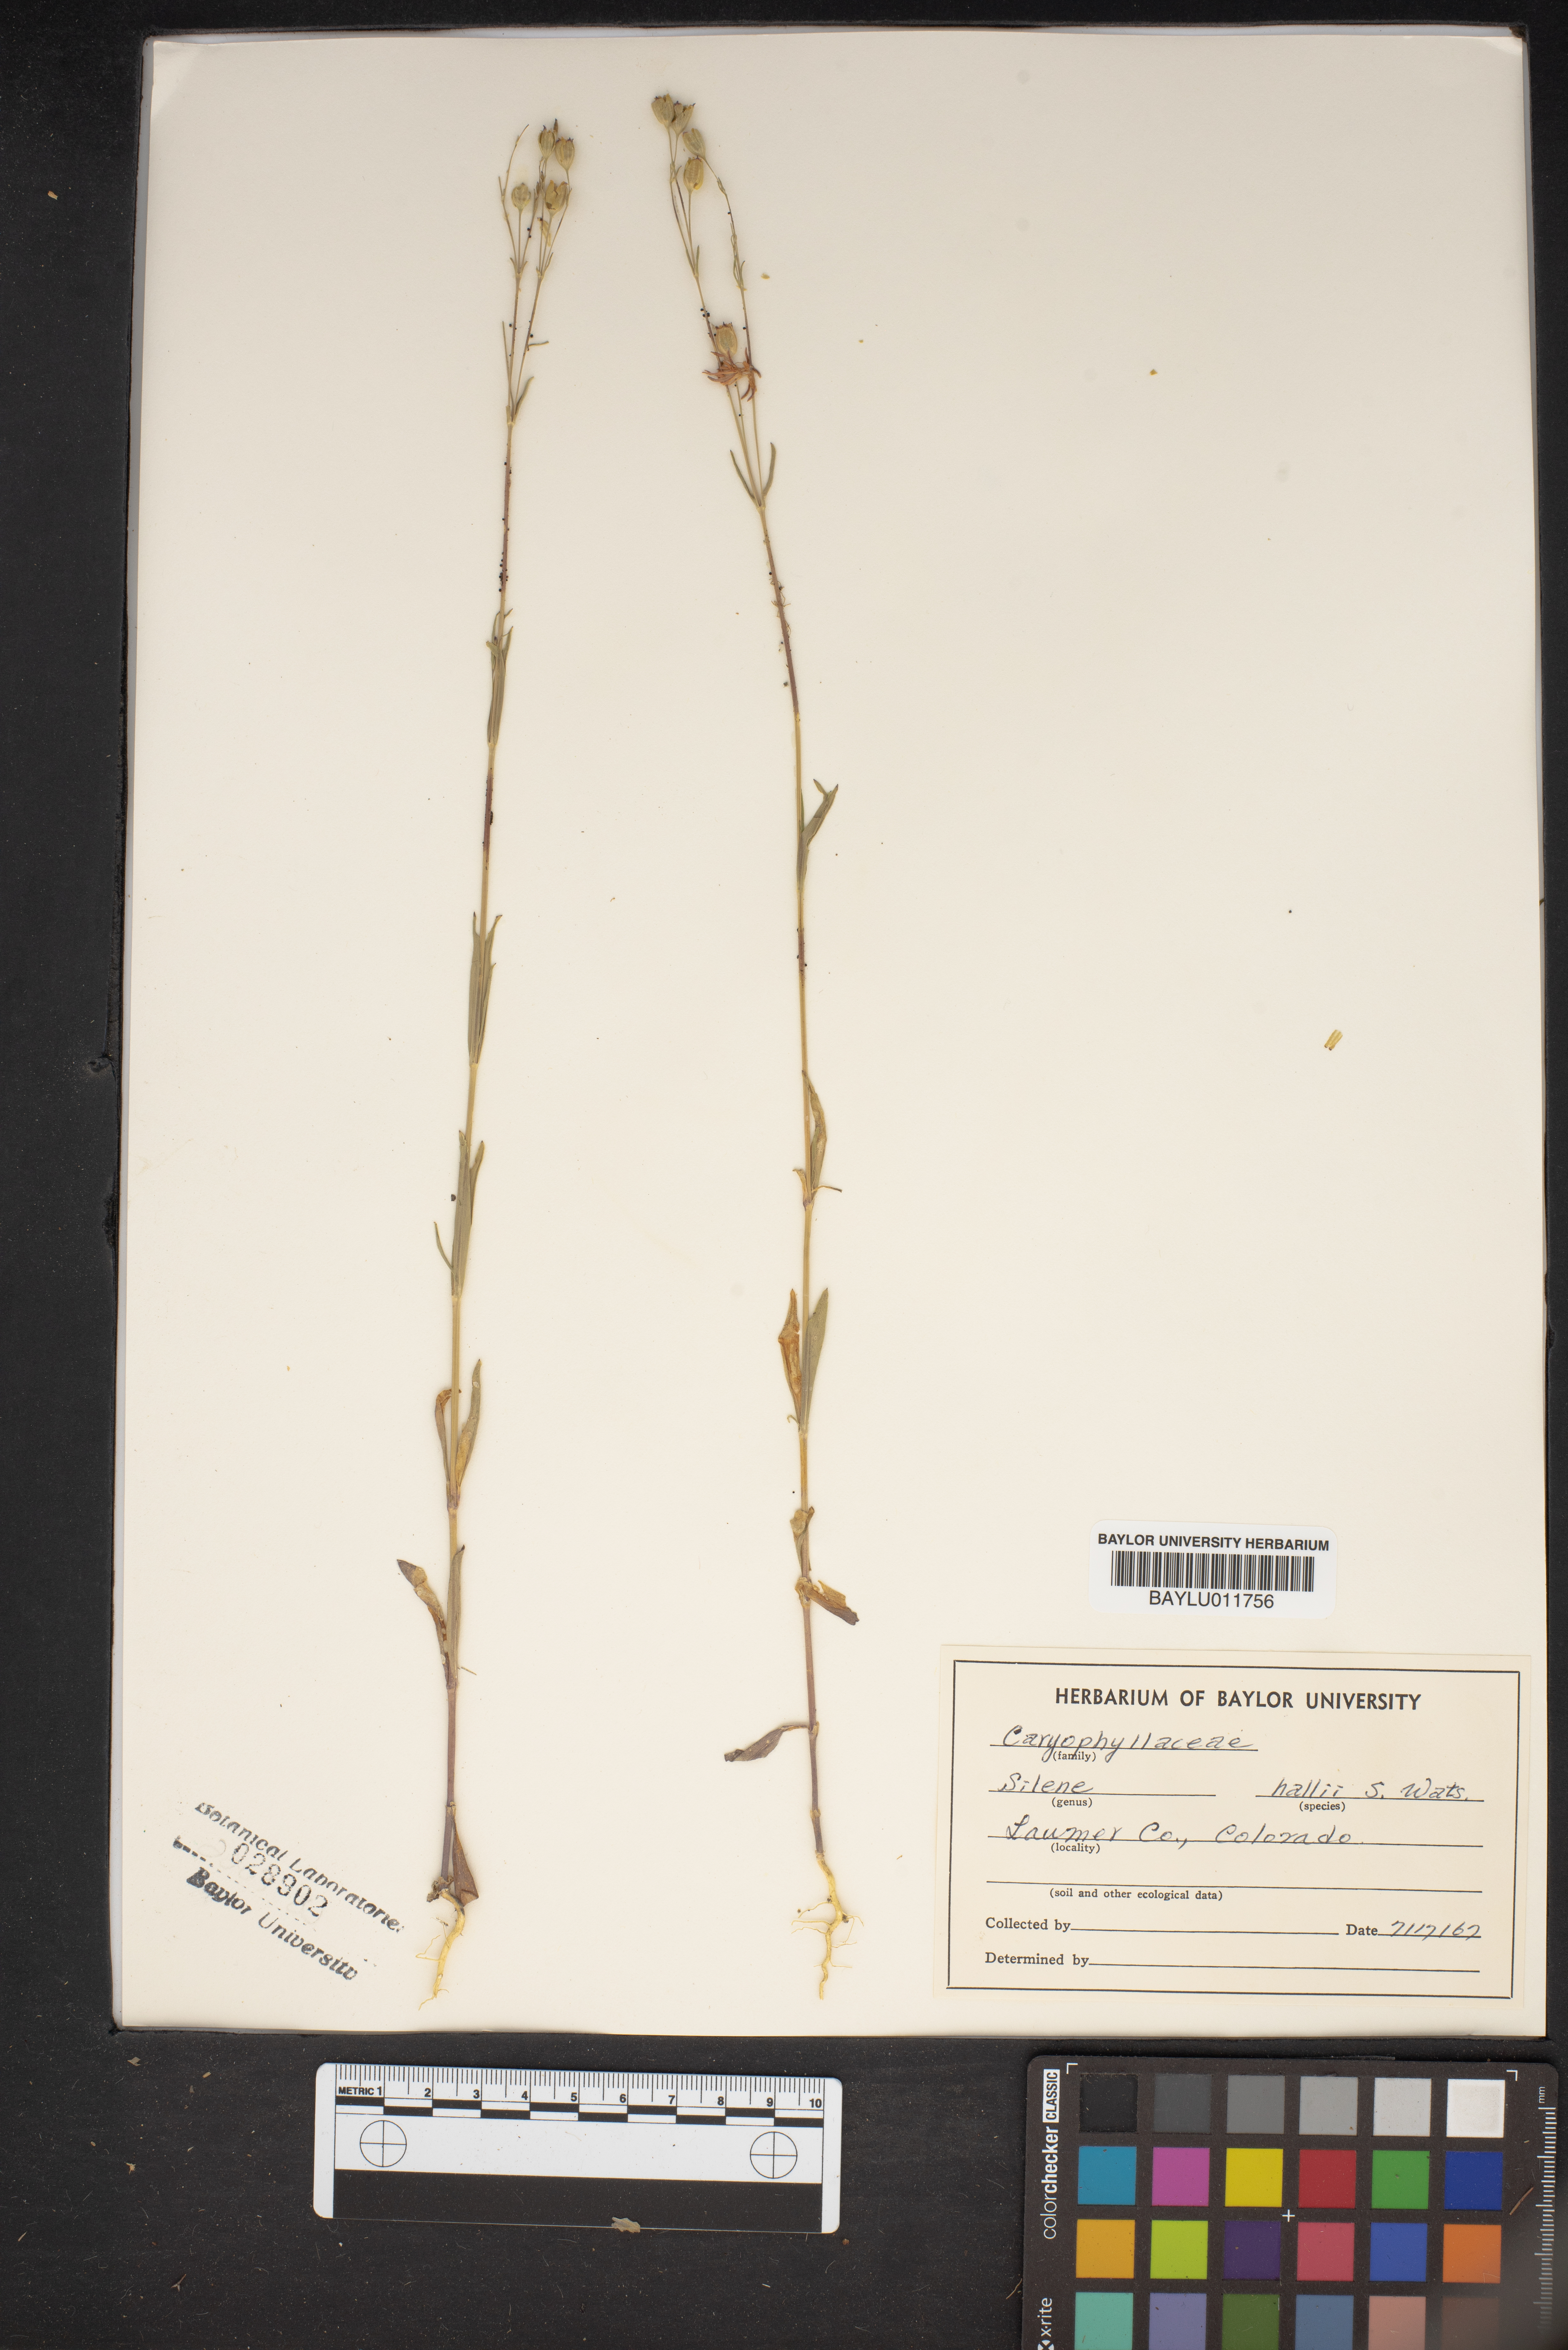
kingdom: Plantae
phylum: Tracheophyta
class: Magnoliopsida
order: Caryophyllales
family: Caryophyllaceae
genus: Silene
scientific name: Silene scouleri
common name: Scouler's campion
